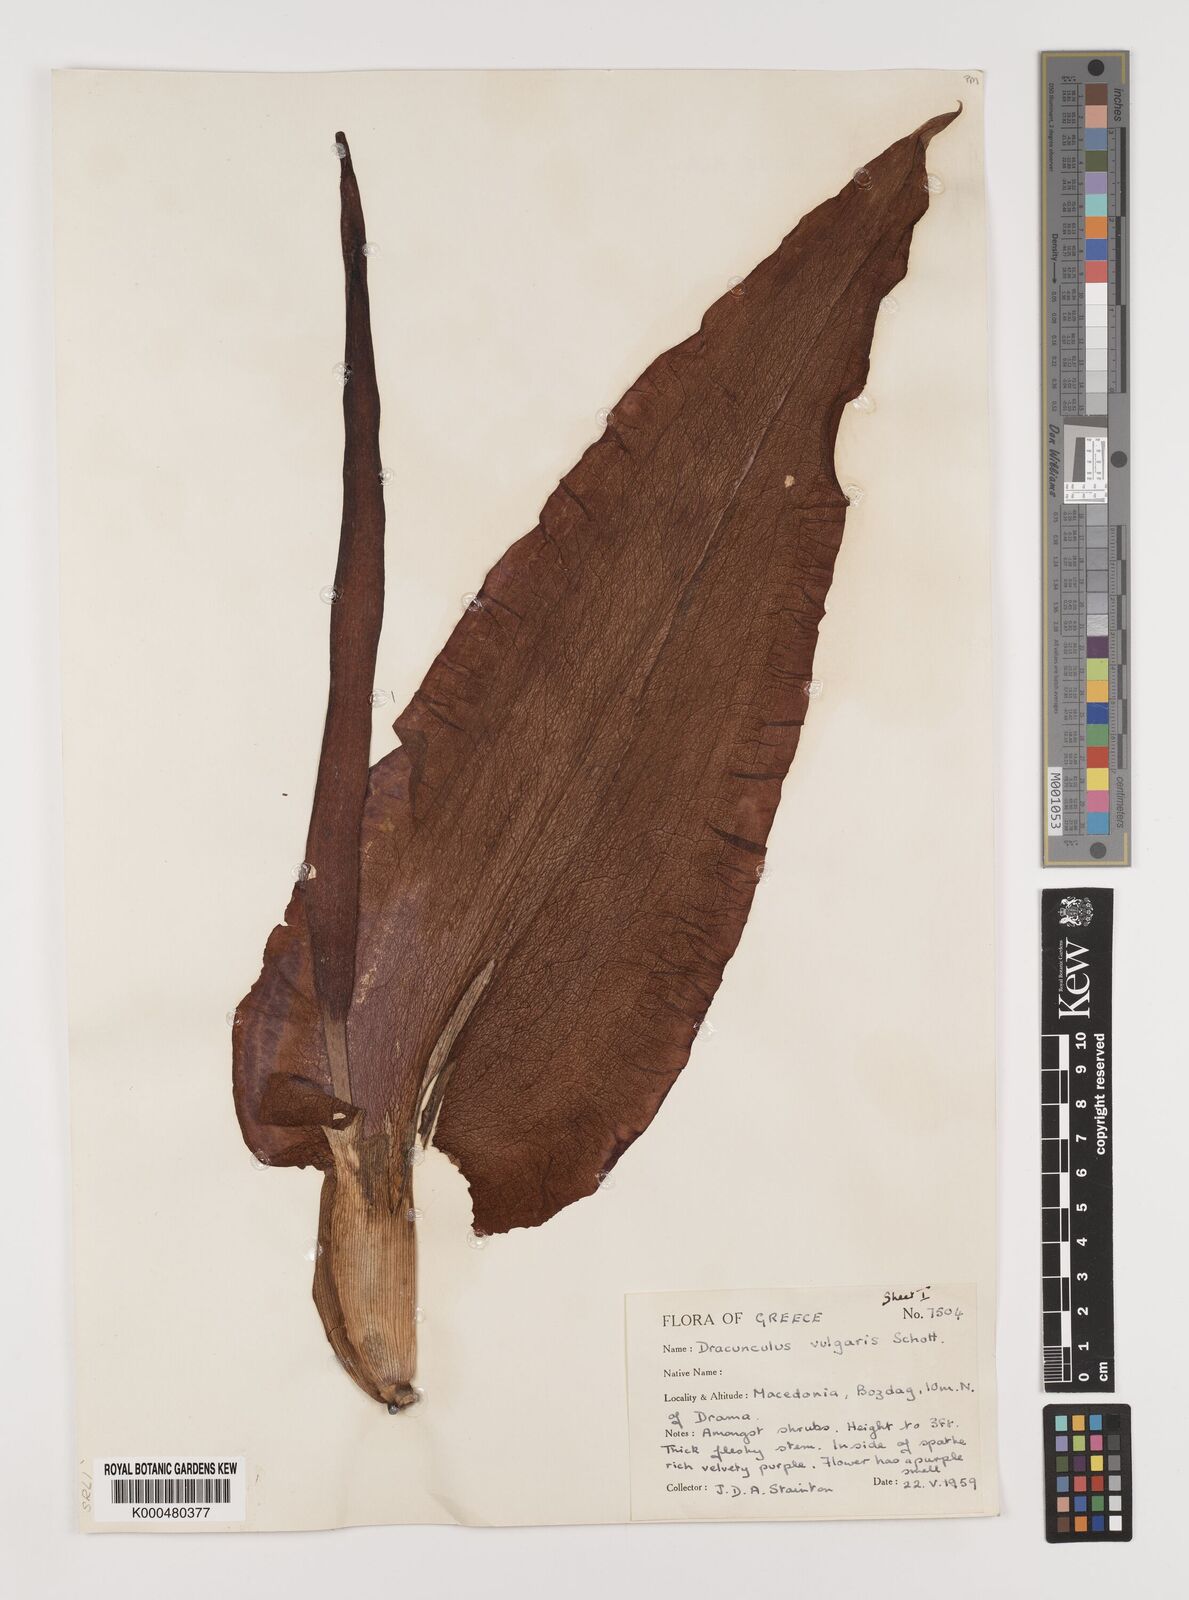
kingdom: Plantae
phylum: Tracheophyta
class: Liliopsida
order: Alismatales
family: Araceae
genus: Dracunculus
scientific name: Dracunculus vulgaris
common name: Dragon arum
